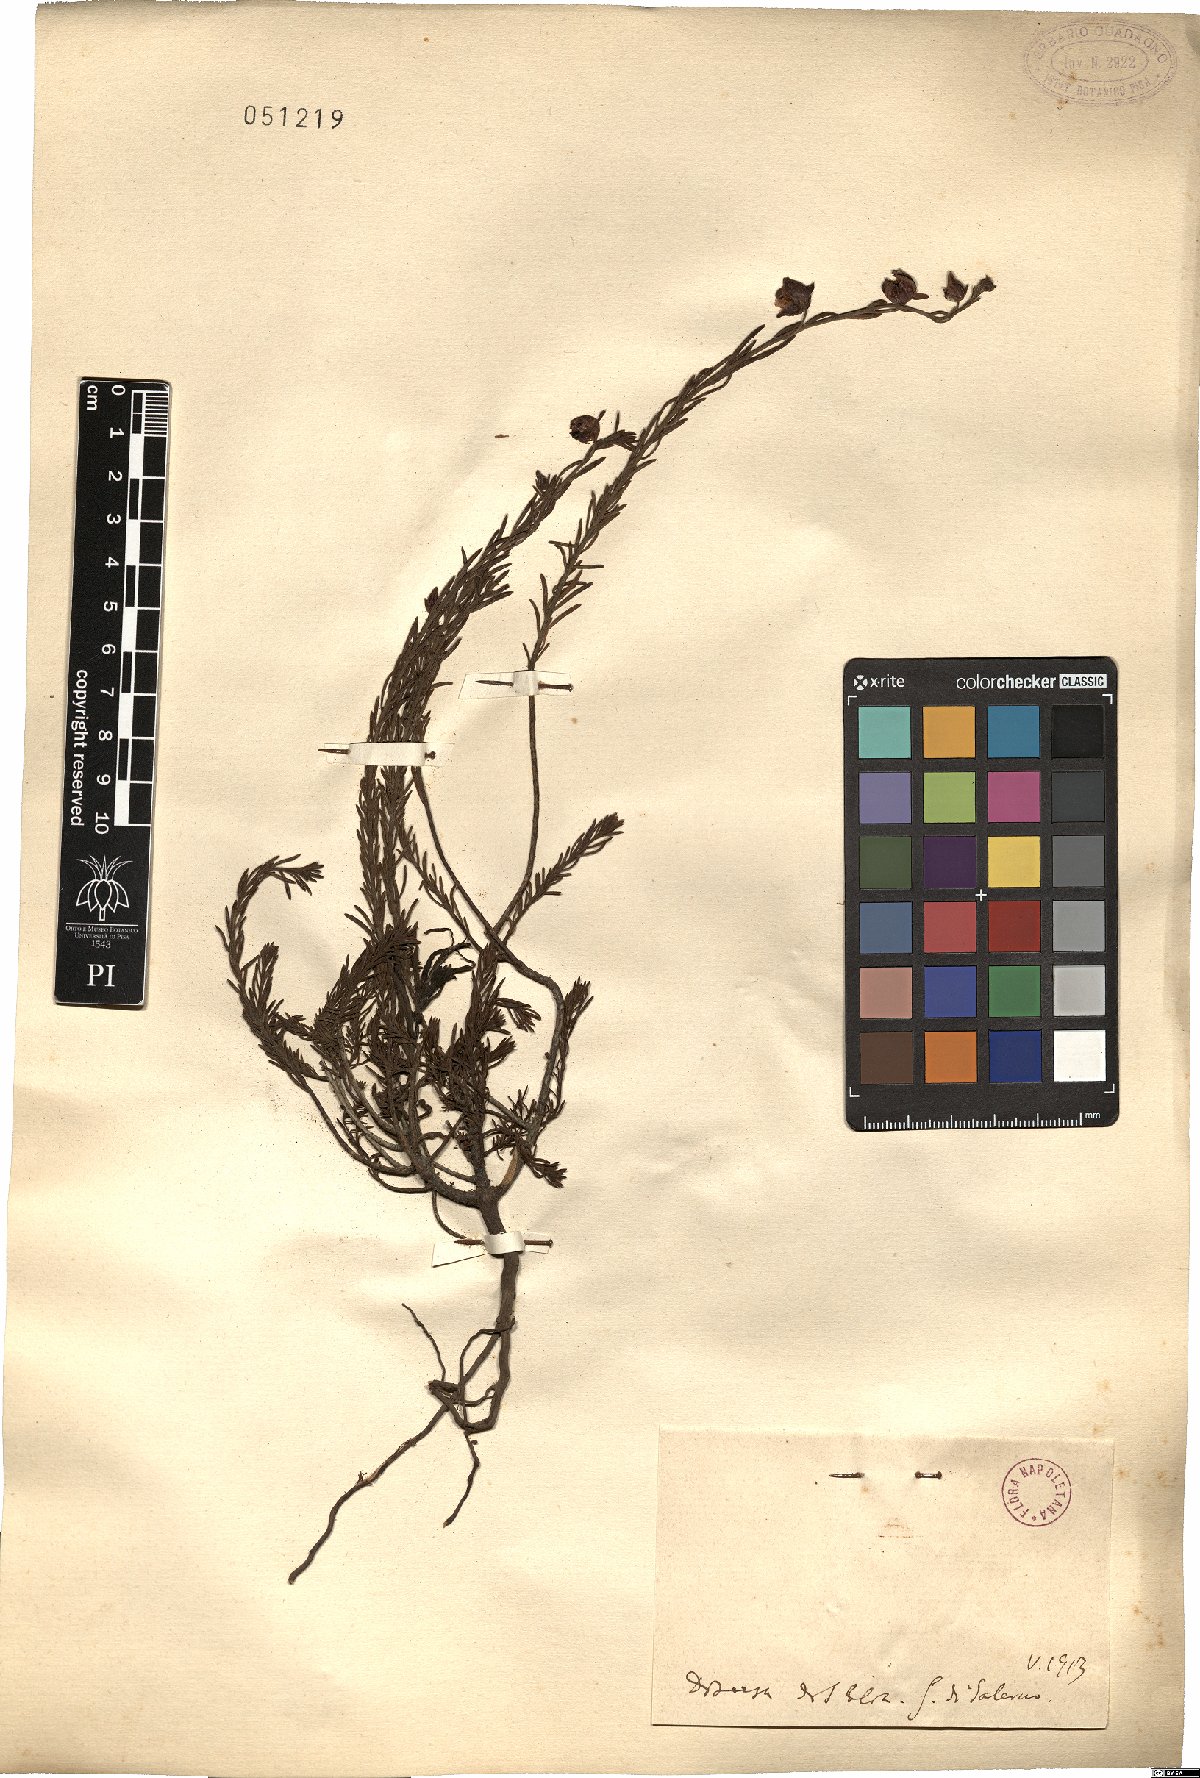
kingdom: Plantae
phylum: Tracheophyta
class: Magnoliopsida
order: Malvales
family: Cistaceae
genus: Helianthemum
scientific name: Helianthemum
